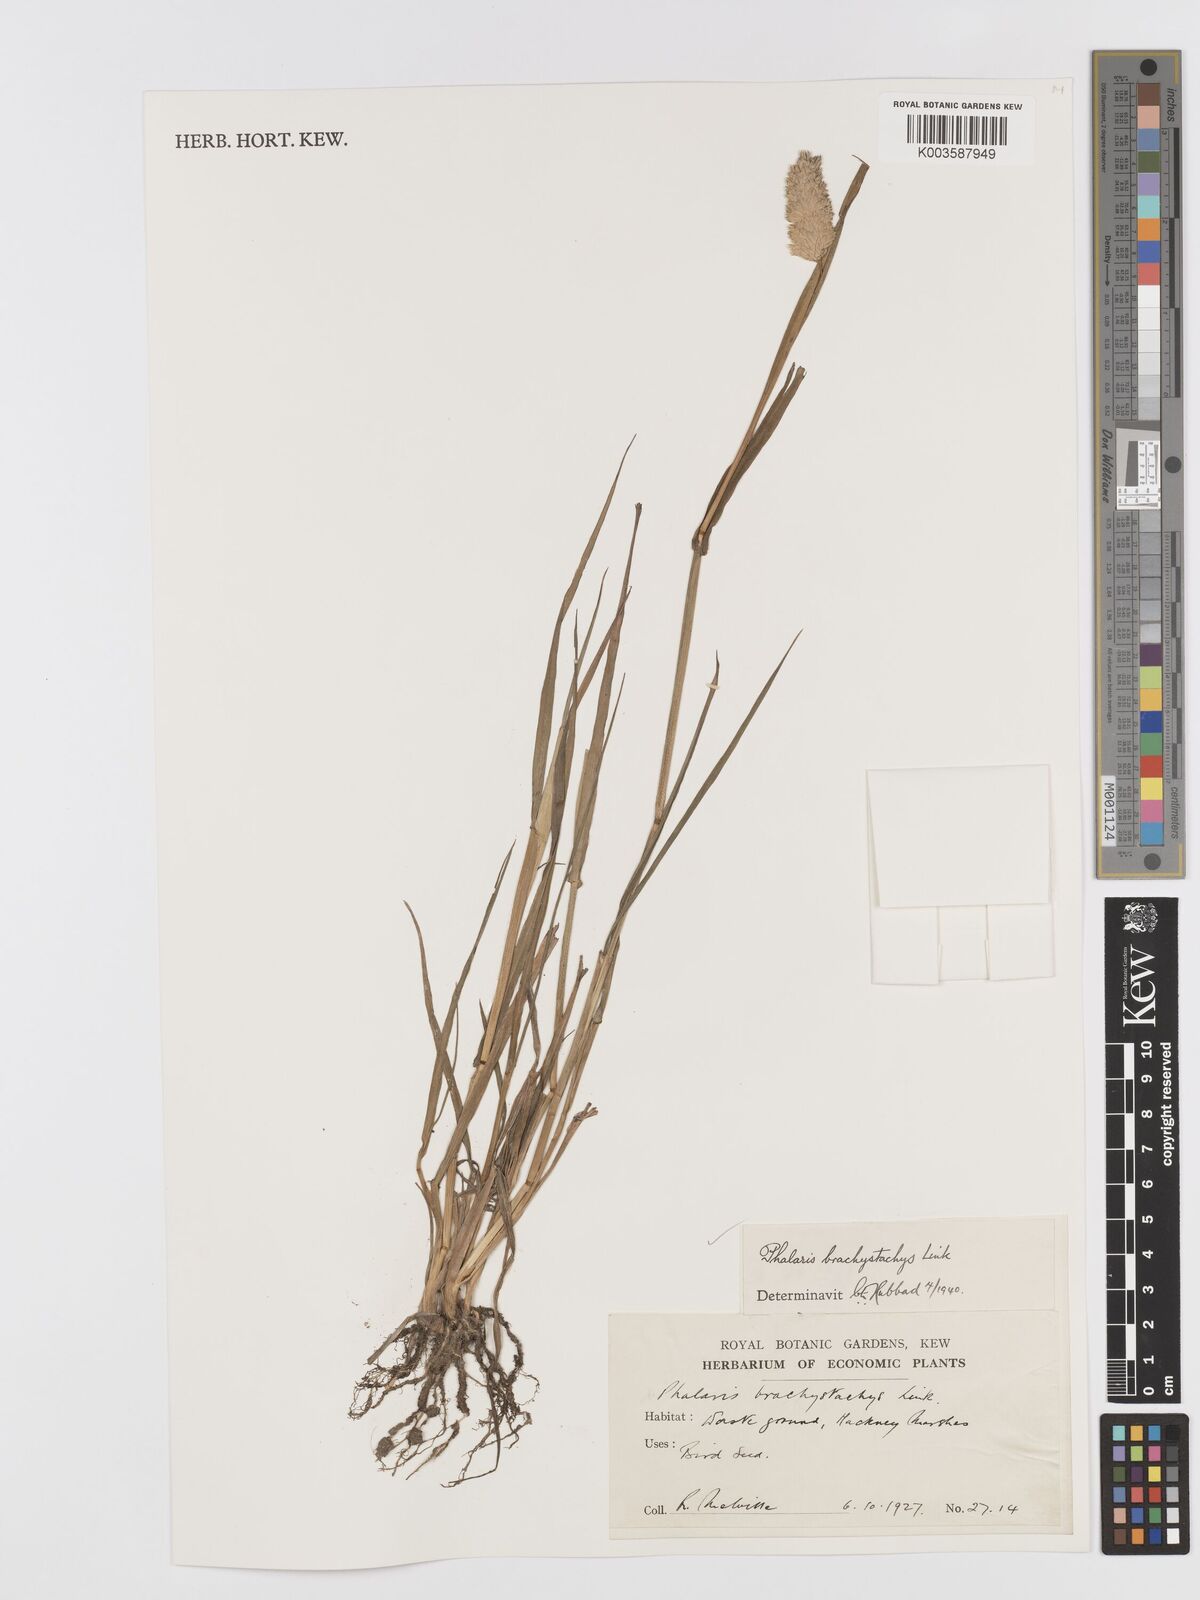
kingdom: Plantae
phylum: Tracheophyta
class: Liliopsida
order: Poales
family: Poaceae
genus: Phalaris
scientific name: Phalaris brachystachys
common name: Confused canary-grass
